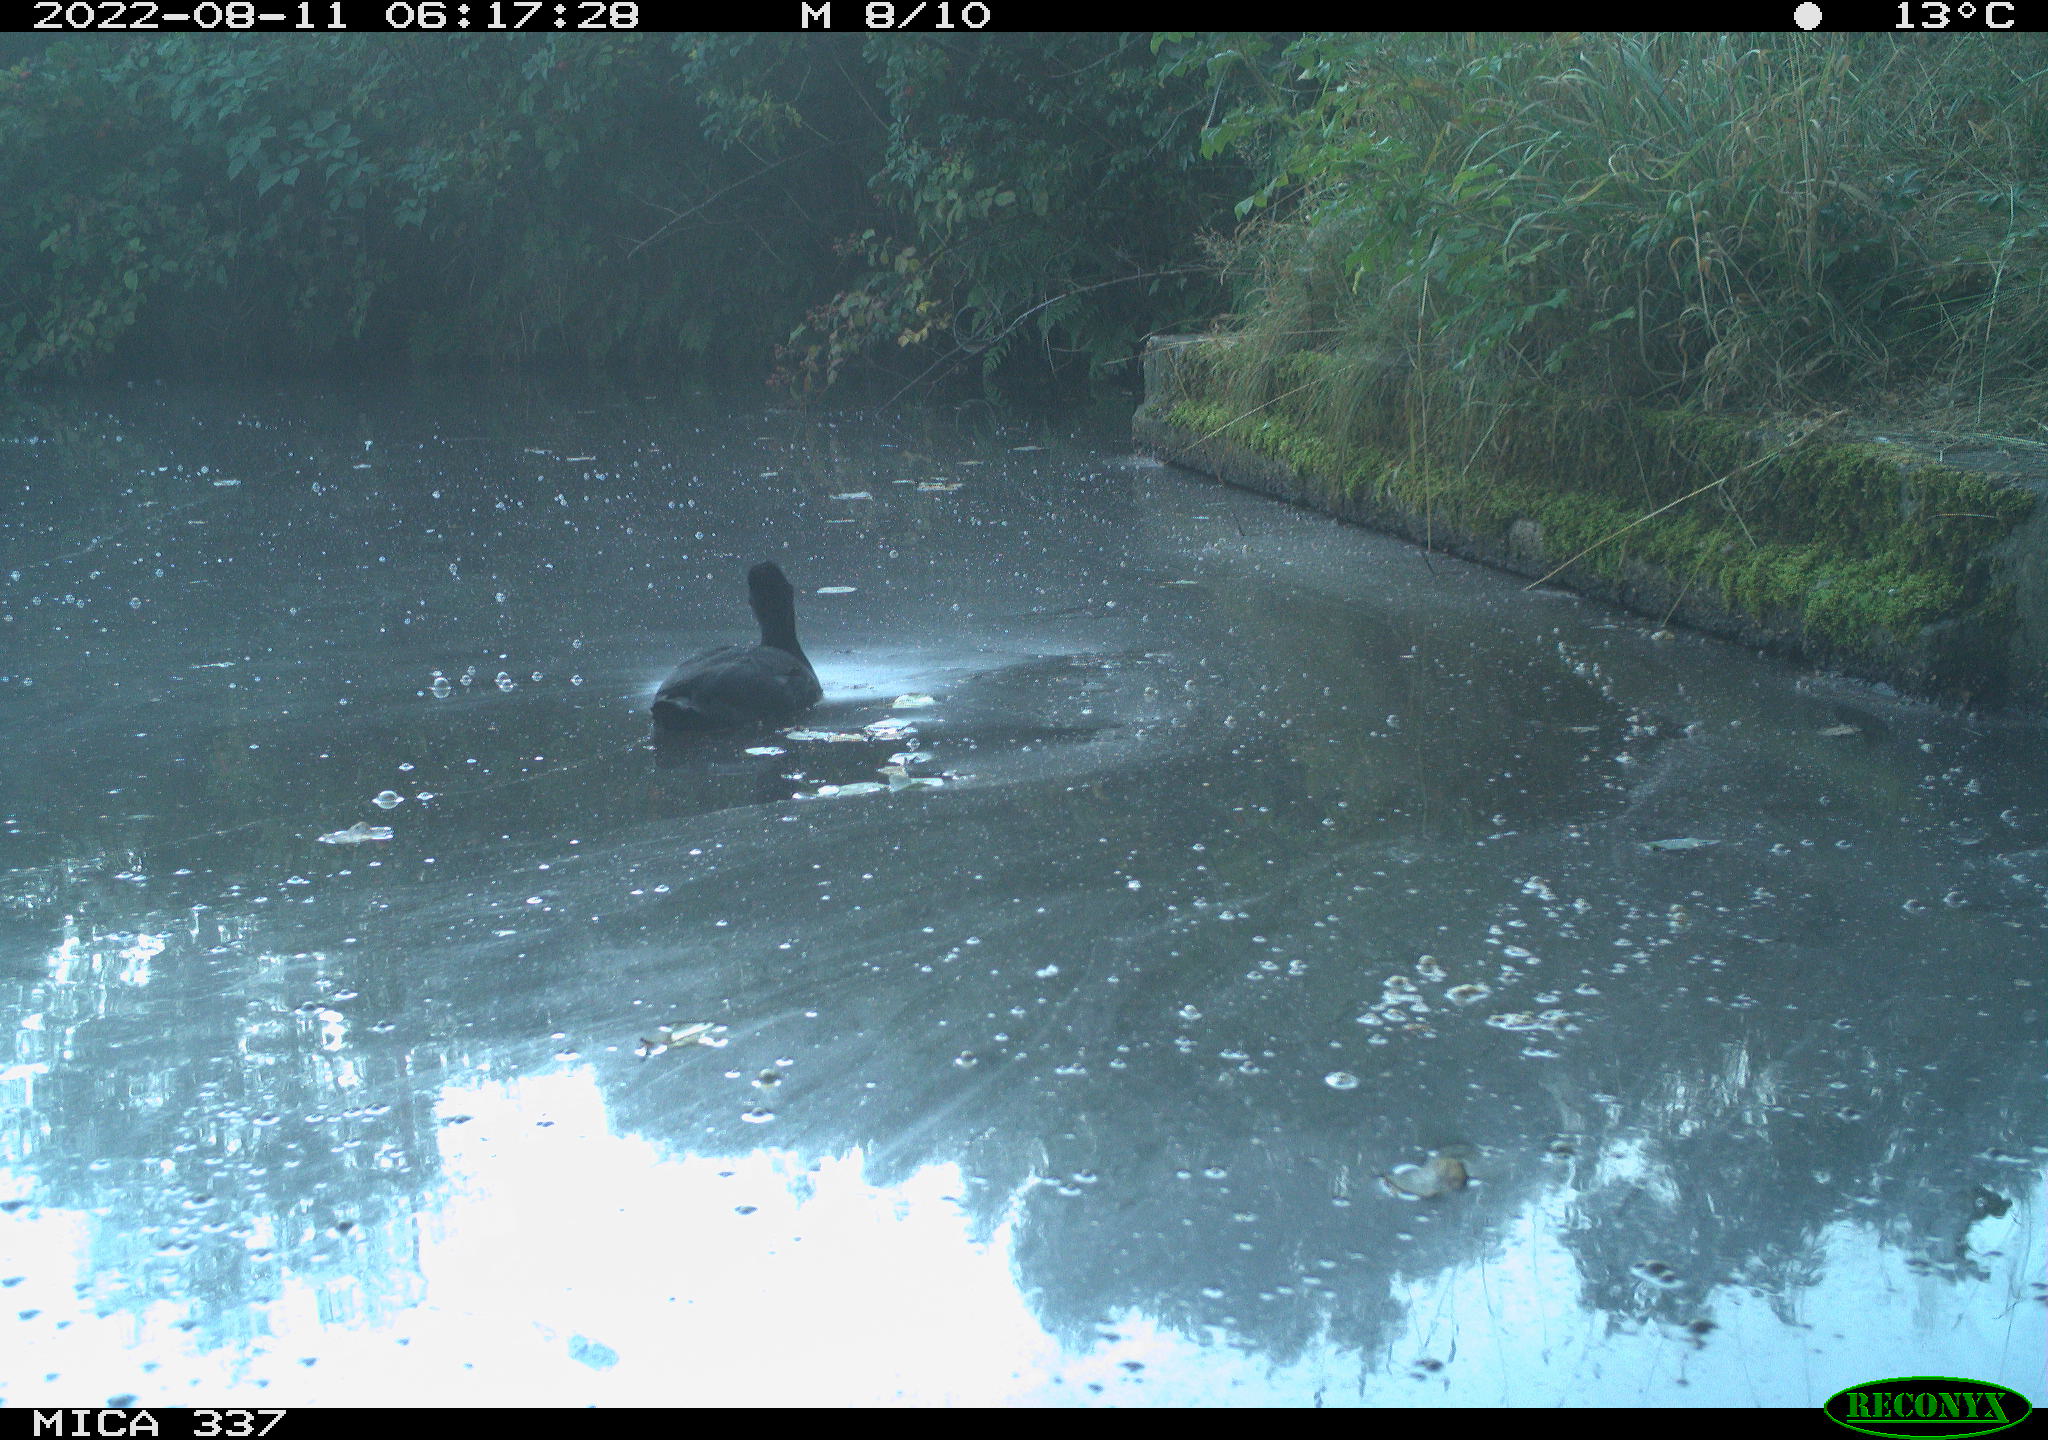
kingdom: Animalia
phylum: Chordata
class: Aves
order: Gruiformes
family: Rallidae
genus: Fulica
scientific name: Fulica atra
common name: Eurasian coot
